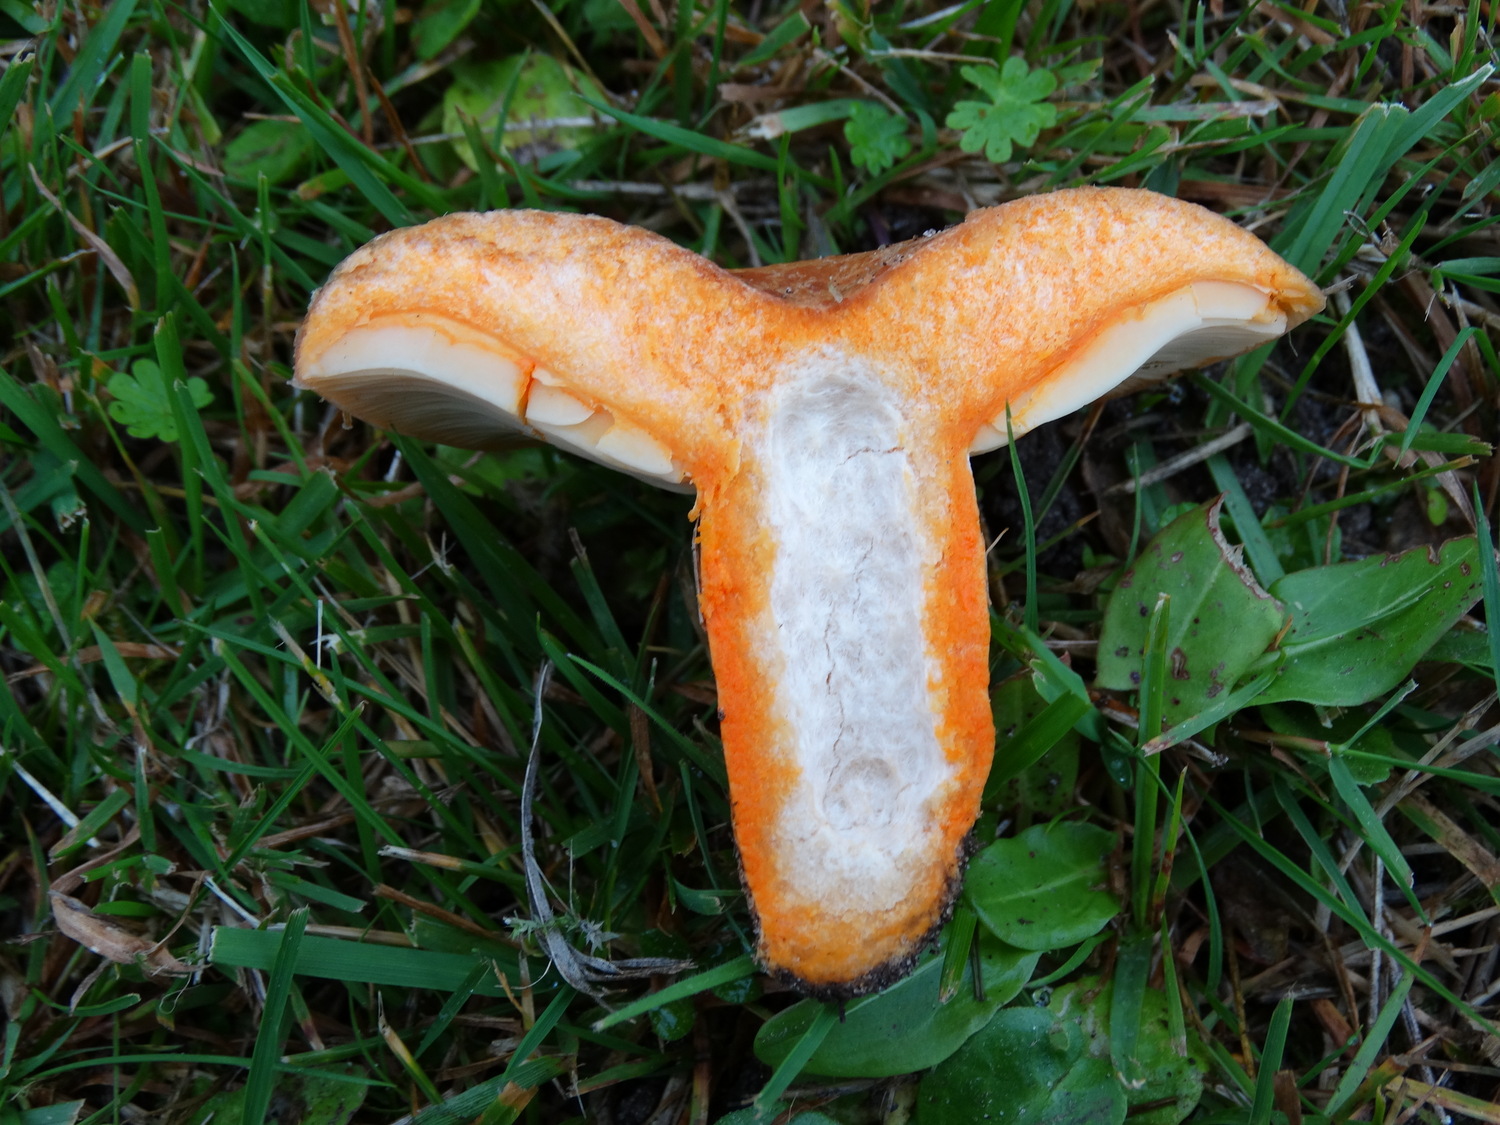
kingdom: Fungi
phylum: Basidiomycota
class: Agaricomycetes
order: Russulales
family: Russulaceae
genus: Lactarius
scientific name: Lactarius deliciosus
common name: velsmagende mælkehat
